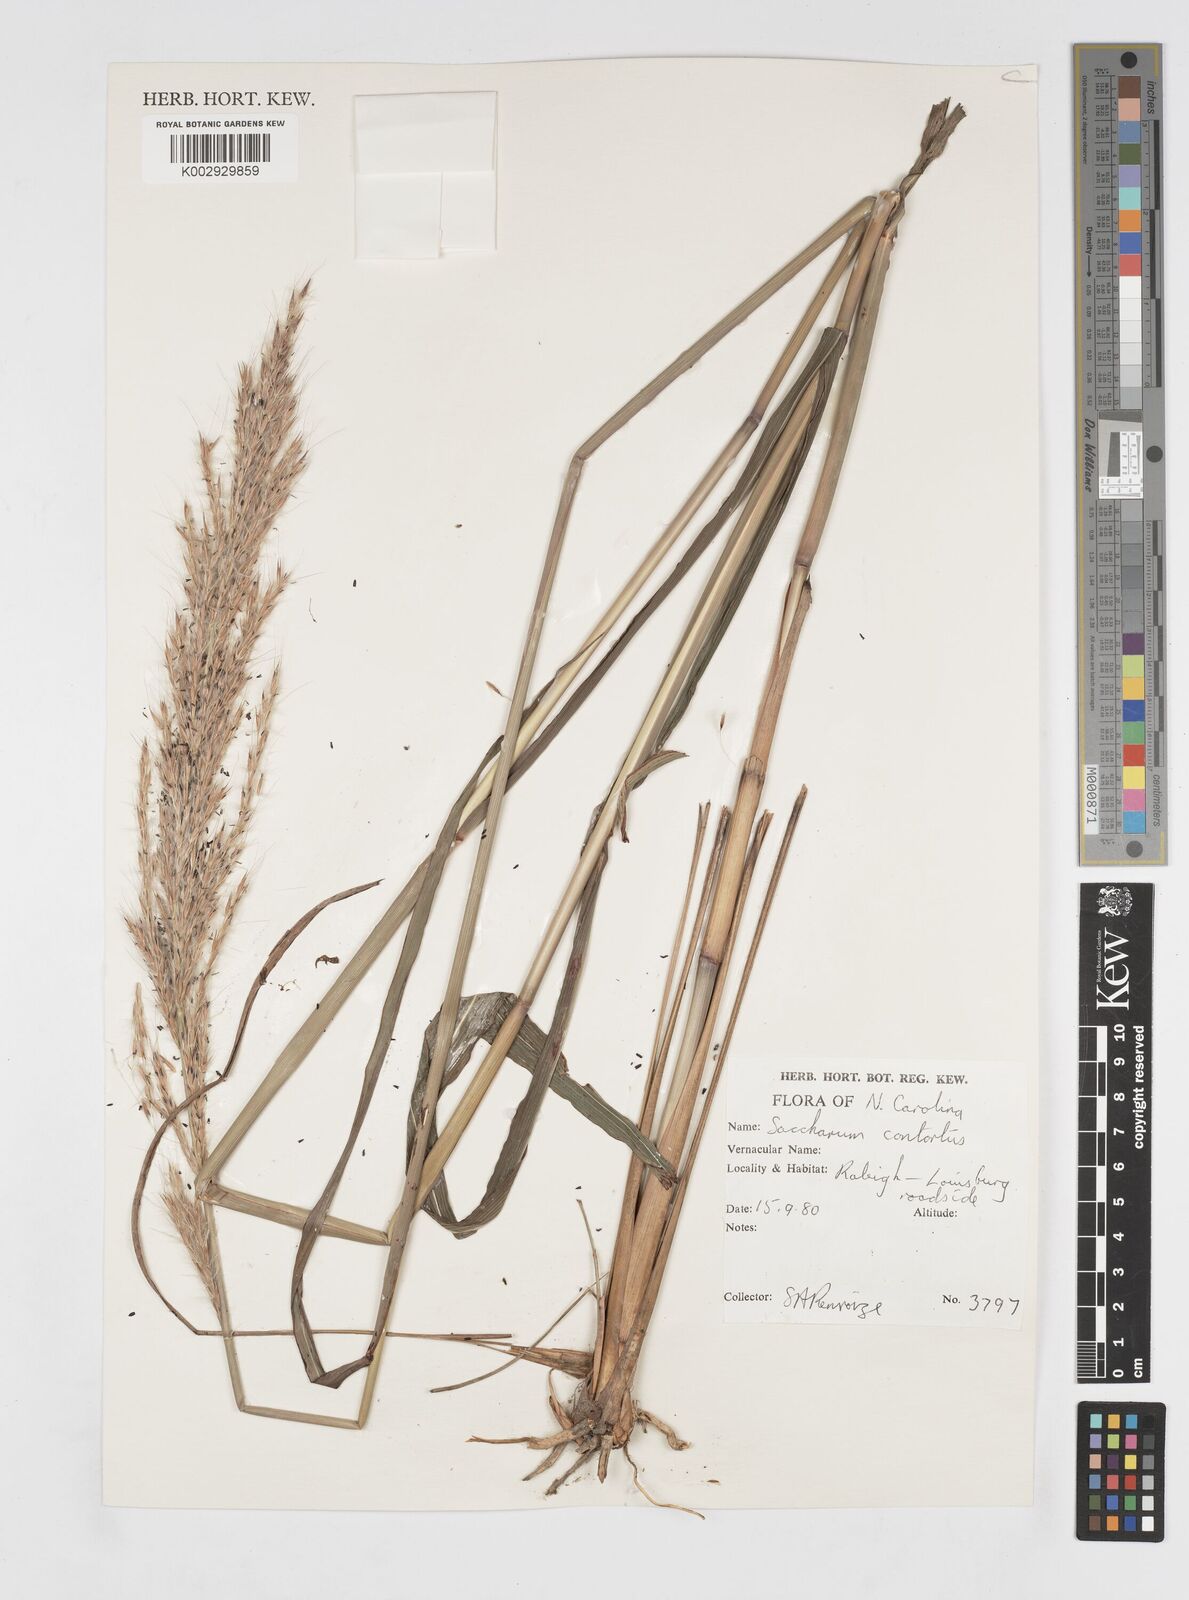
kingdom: Plantae
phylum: Tracheophyta
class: Liliopsida
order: Poales
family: Poaceae
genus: Erianthus
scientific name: Erianthus contortus
